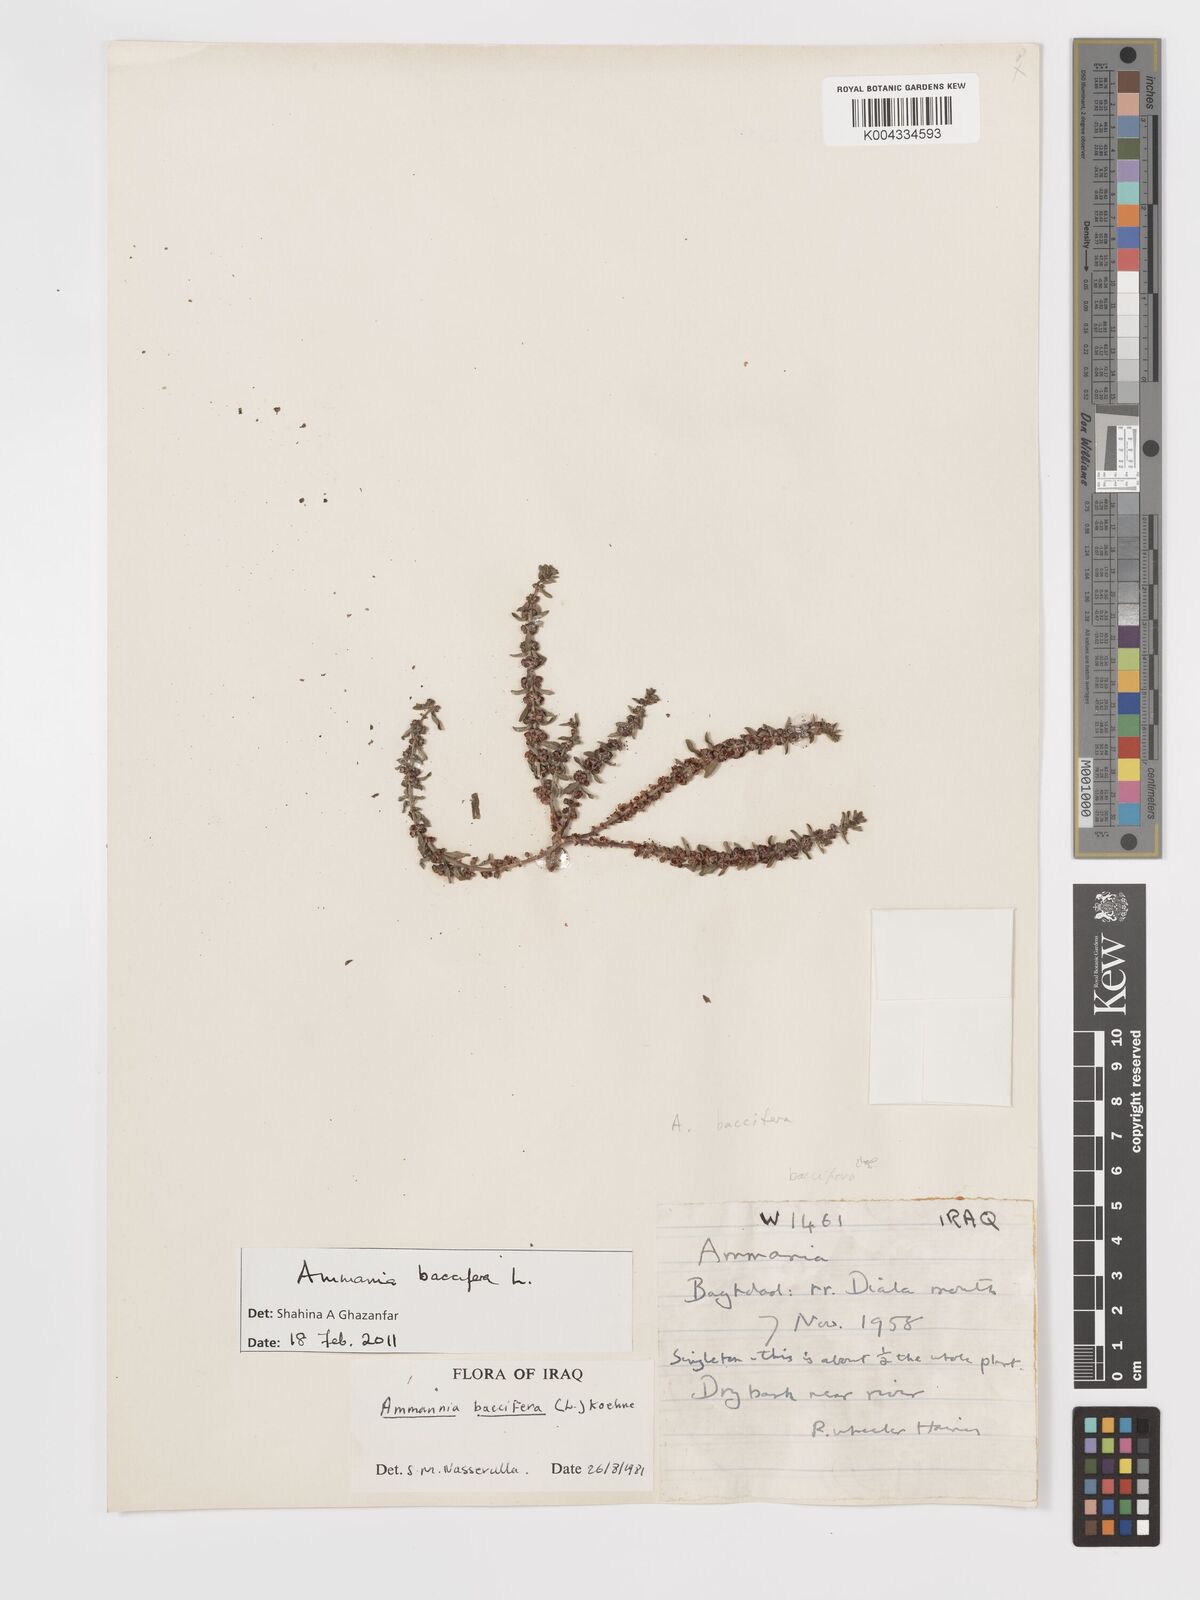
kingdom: Plantae
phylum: Tracheophyta
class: Magnoliopsida
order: Myrtales
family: Lythraceae
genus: Ammannia
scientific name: Ammannia baccifera
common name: Blistering ammania
